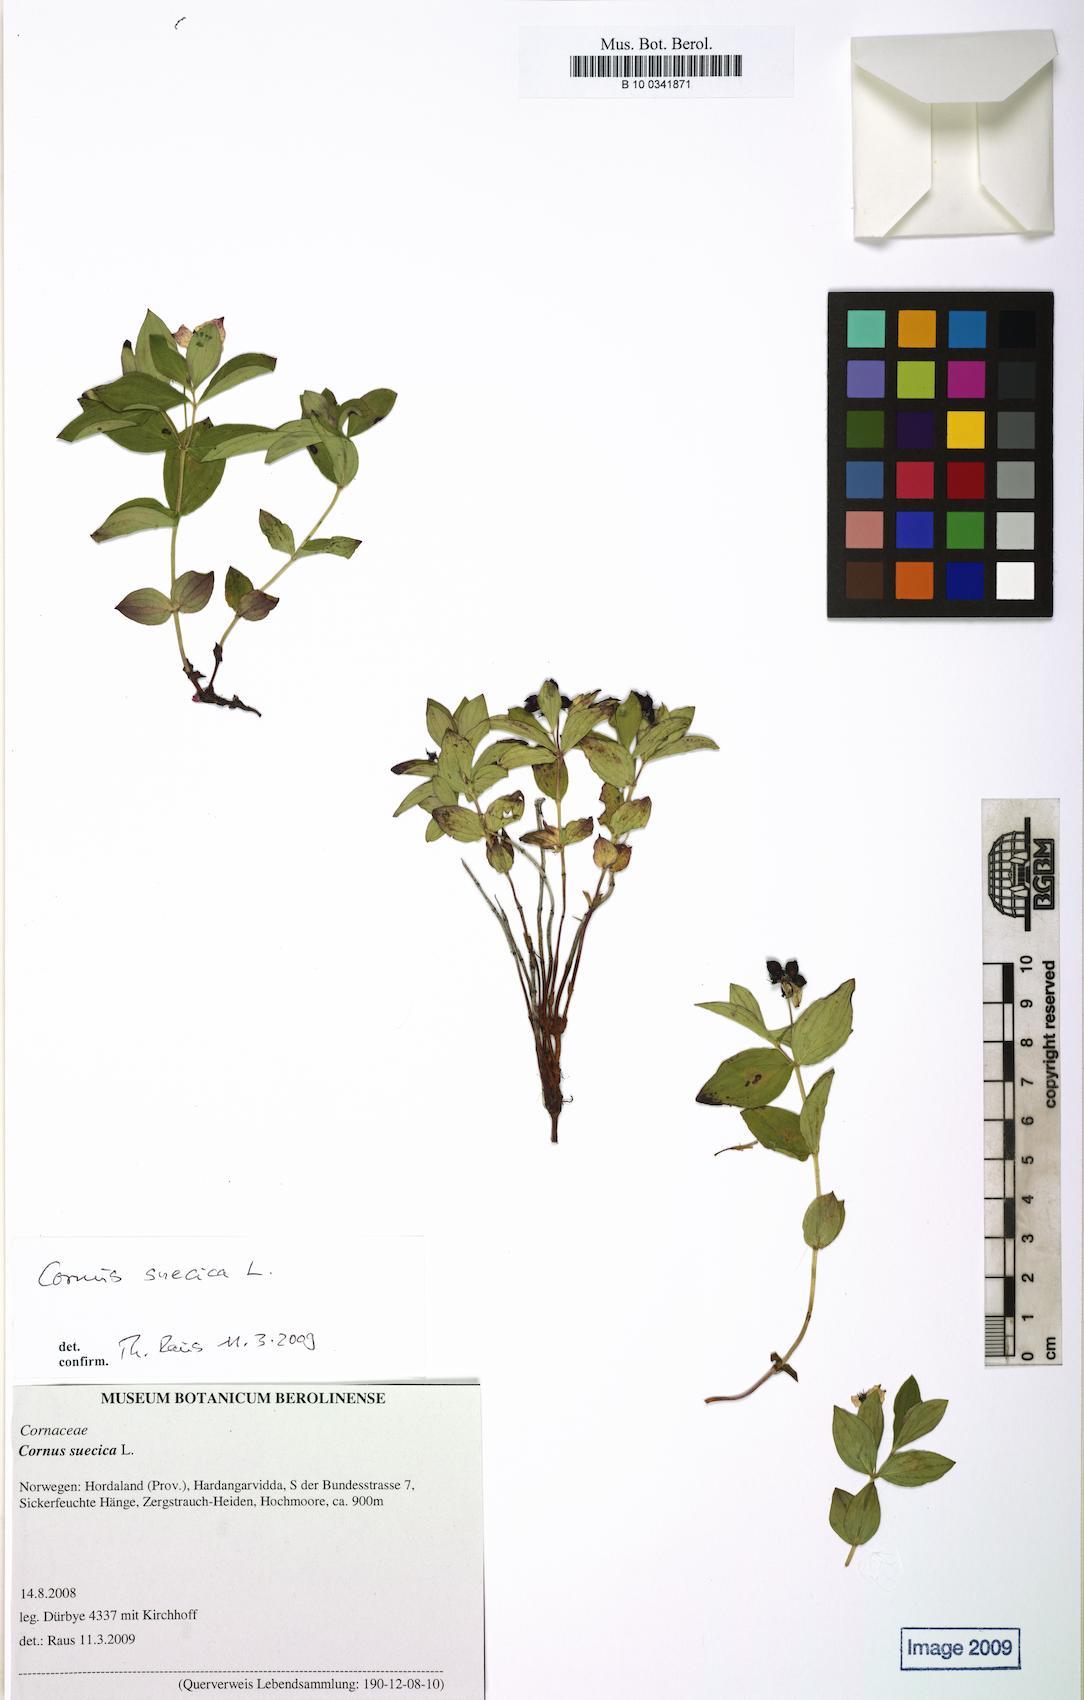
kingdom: Plantae
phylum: Tracheophyta
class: Magnoliopsida
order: Cornales
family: Cornaceae
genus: Cornus
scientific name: Cornus suecica
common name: Dwarf cornel
